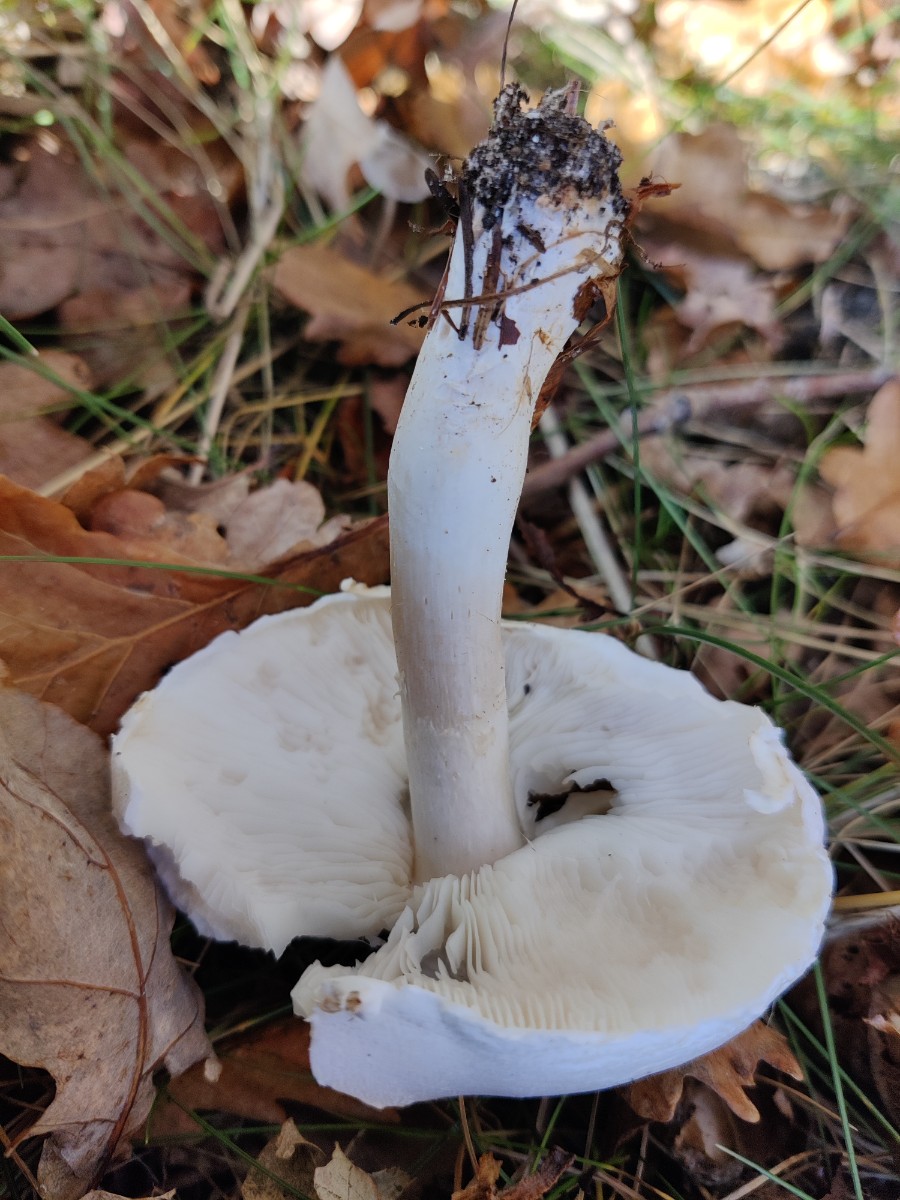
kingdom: Fungi
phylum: Basidiomycota
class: Agaricomycetes
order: Agaricales
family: Agaricaceae
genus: Leucoagaricus
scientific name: Leucoagaricus leucothites
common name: rosabladet silkehat
